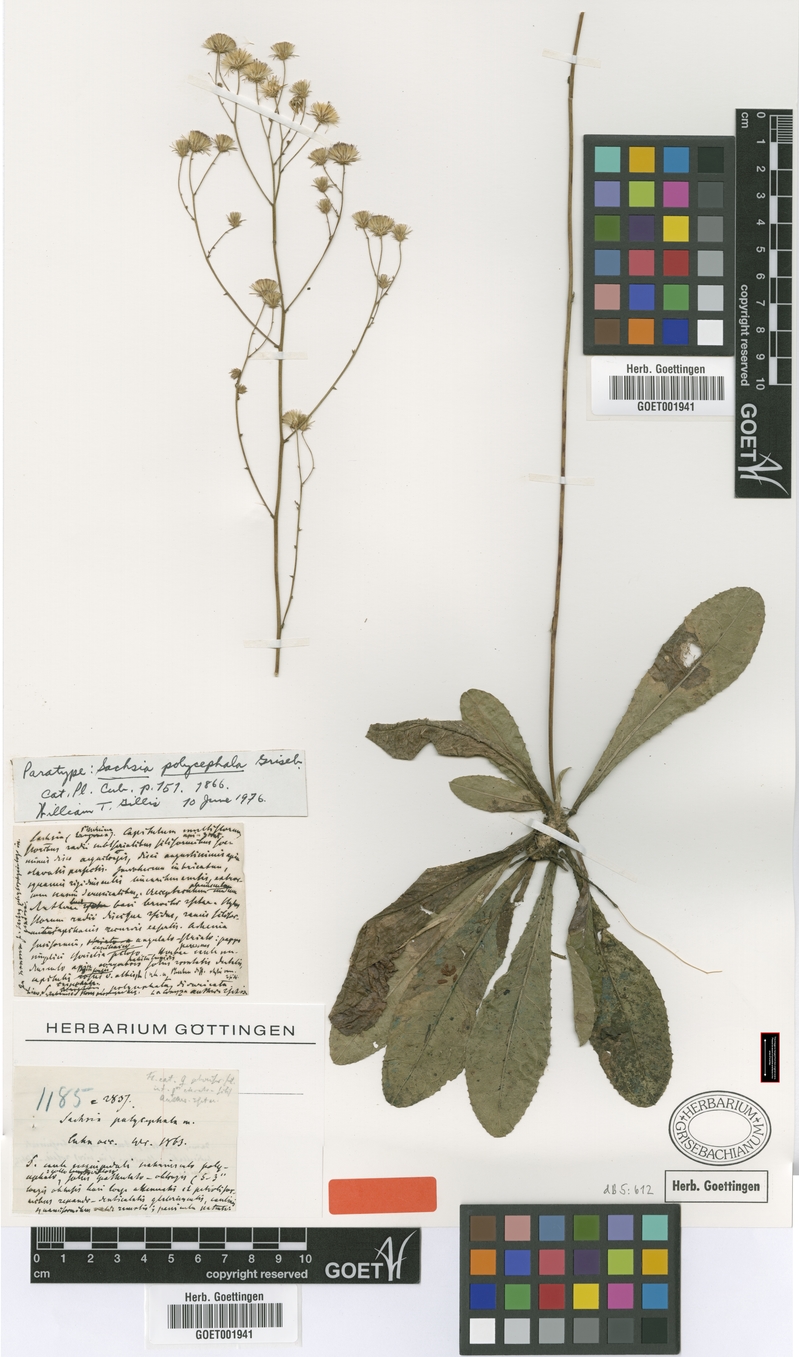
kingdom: Plantae
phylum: Tracheophyta
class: Magnoliopsida
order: Asterales
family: Asteraceae
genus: Sachsia
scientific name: Sachsia polycephala
